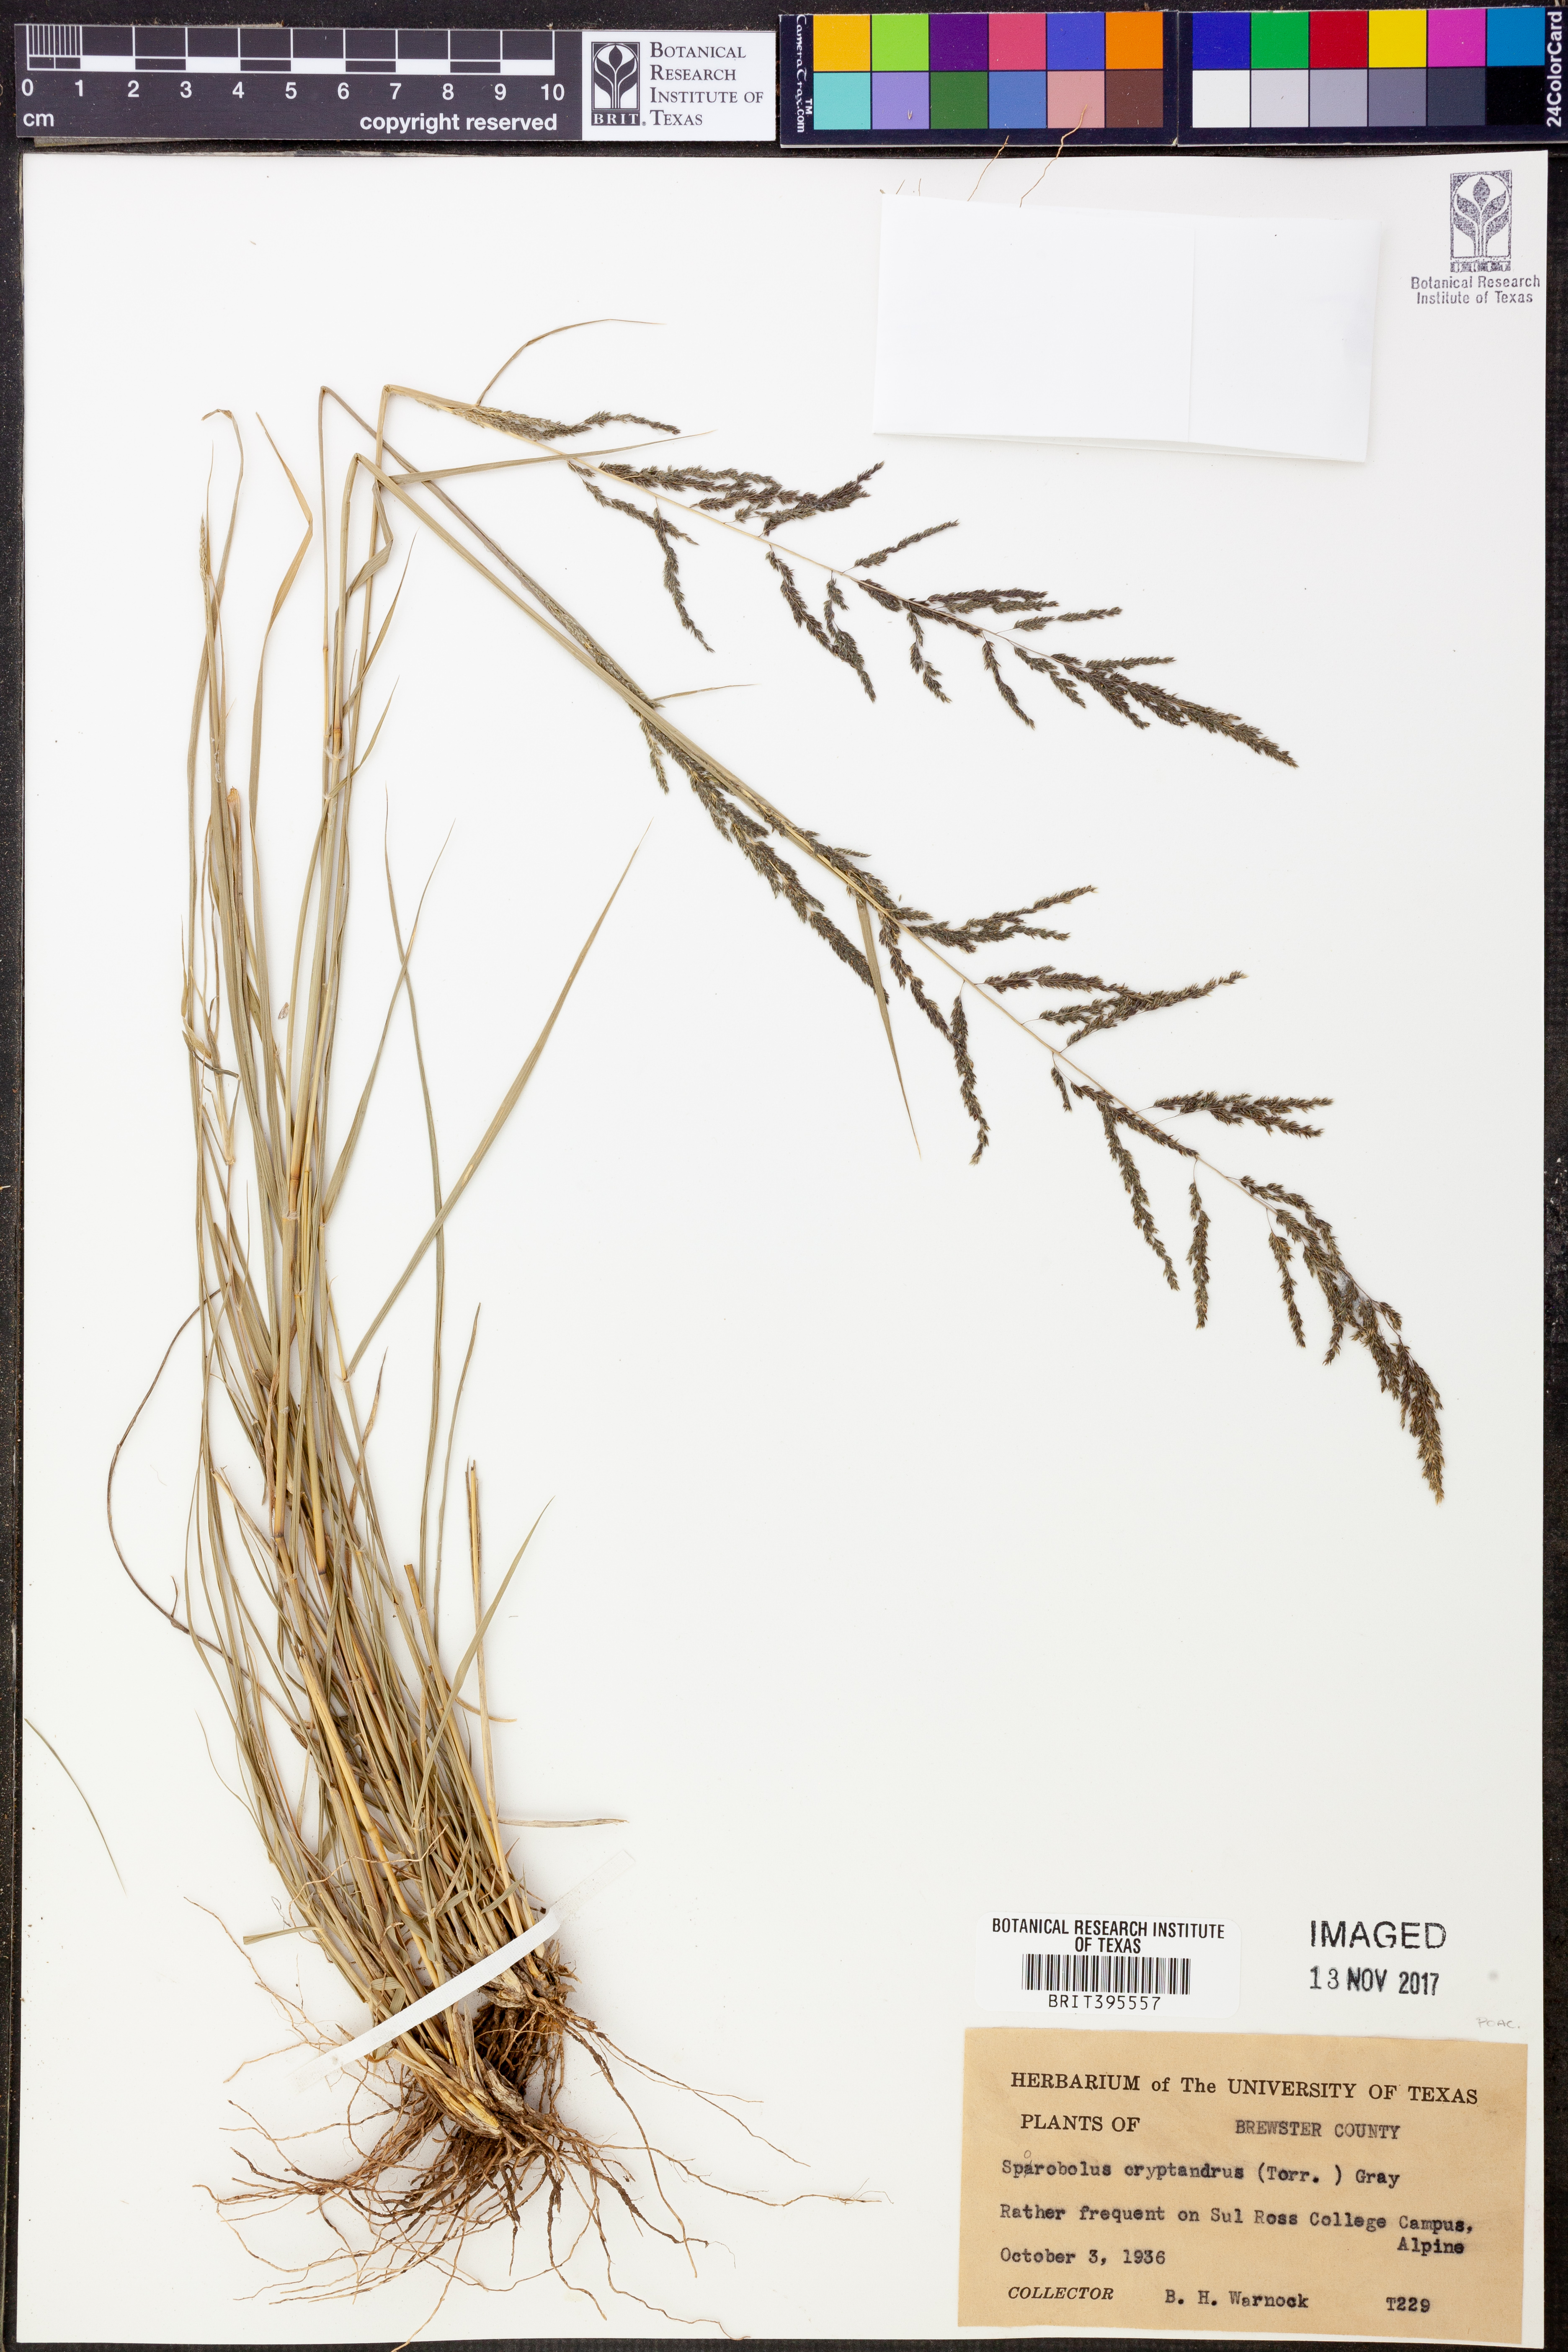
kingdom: Plantae
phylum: Tracheophyta
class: Liliopsida
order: Poales
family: Poaceae
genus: Sporobolus
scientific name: Sporobolus cryptandrus
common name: Sand dropseed
